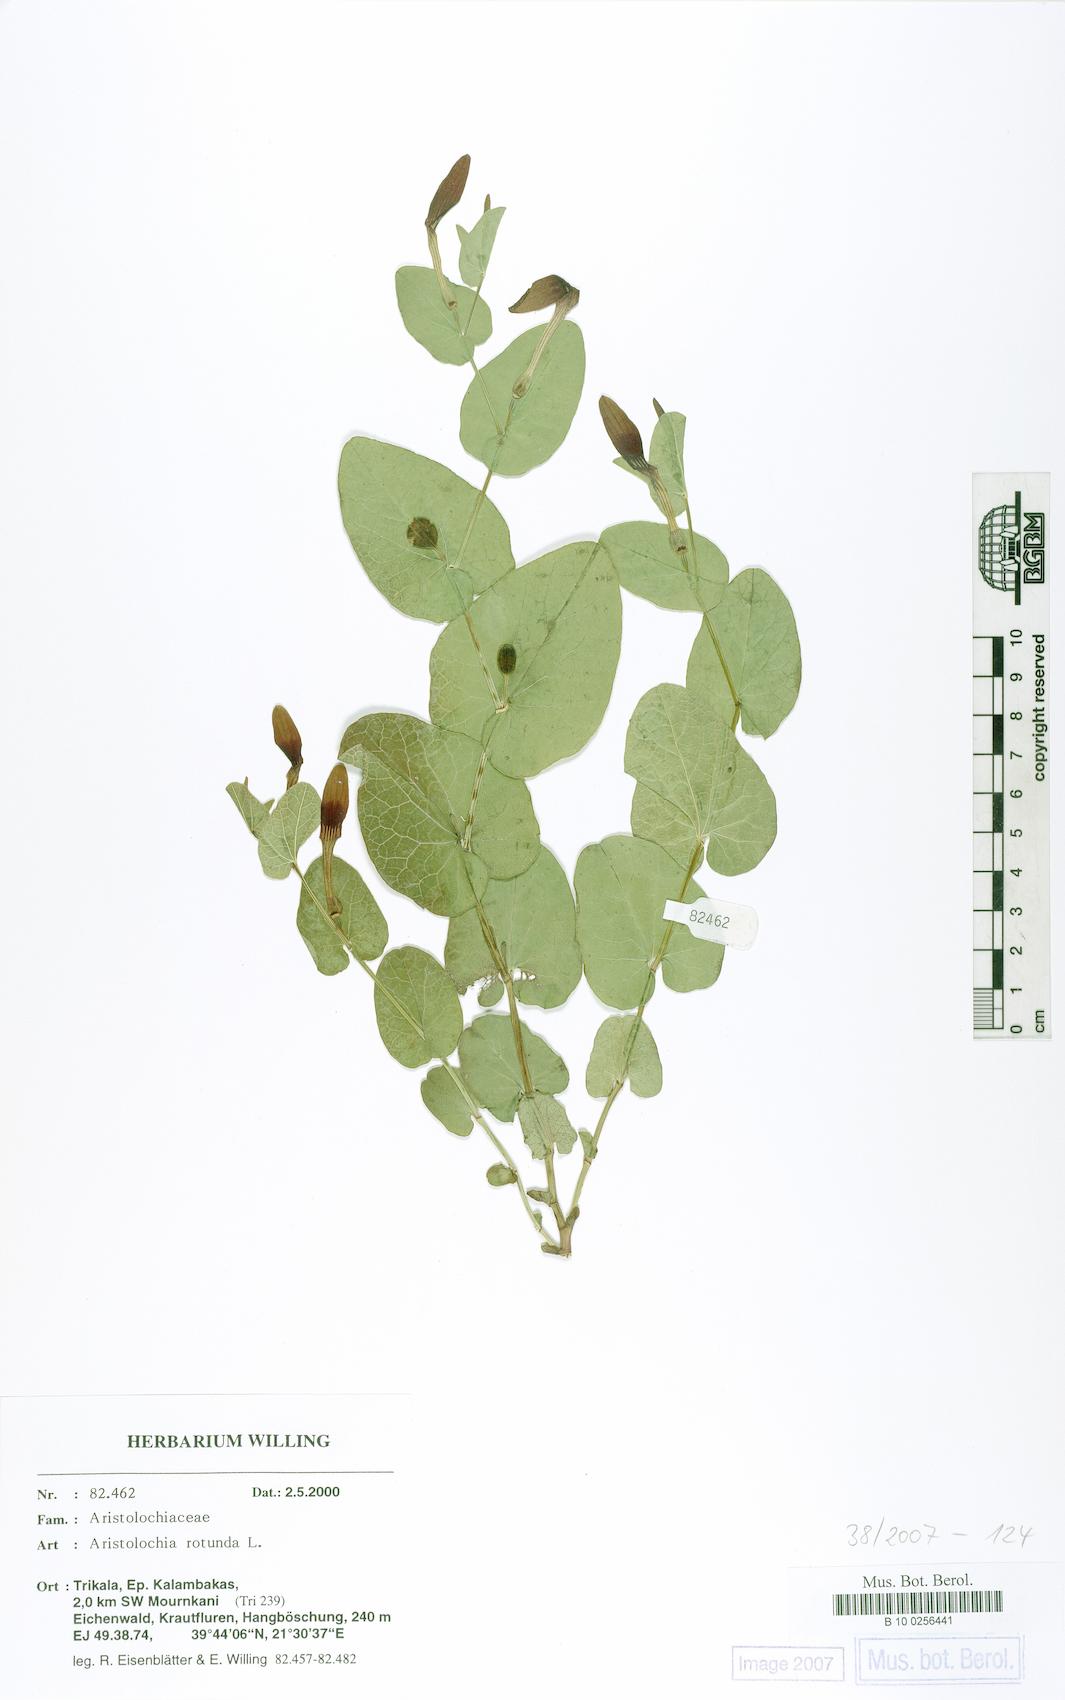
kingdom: Plantae
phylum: Tracheophyta
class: Magnoliopsida
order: Piperales
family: Aristolochiaceae
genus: Aristolochia
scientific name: Aristolochia rotunda
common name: Smearwort
